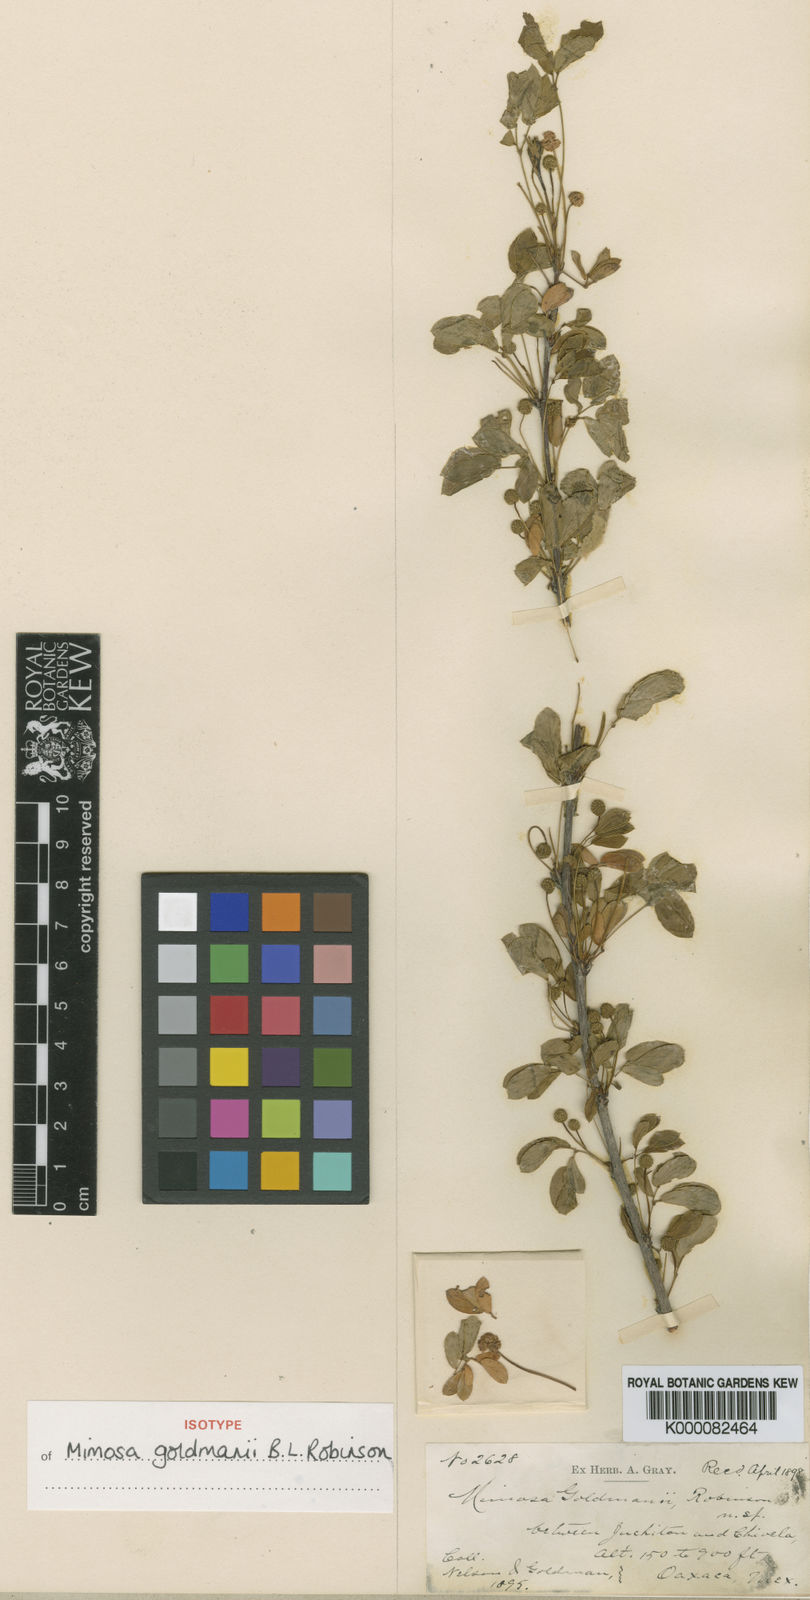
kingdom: Plantae
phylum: Tracheophyta
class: Magnoliopsida
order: Fabales
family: Fabaceae
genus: Mimosa
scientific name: Mimosa goldmanii
